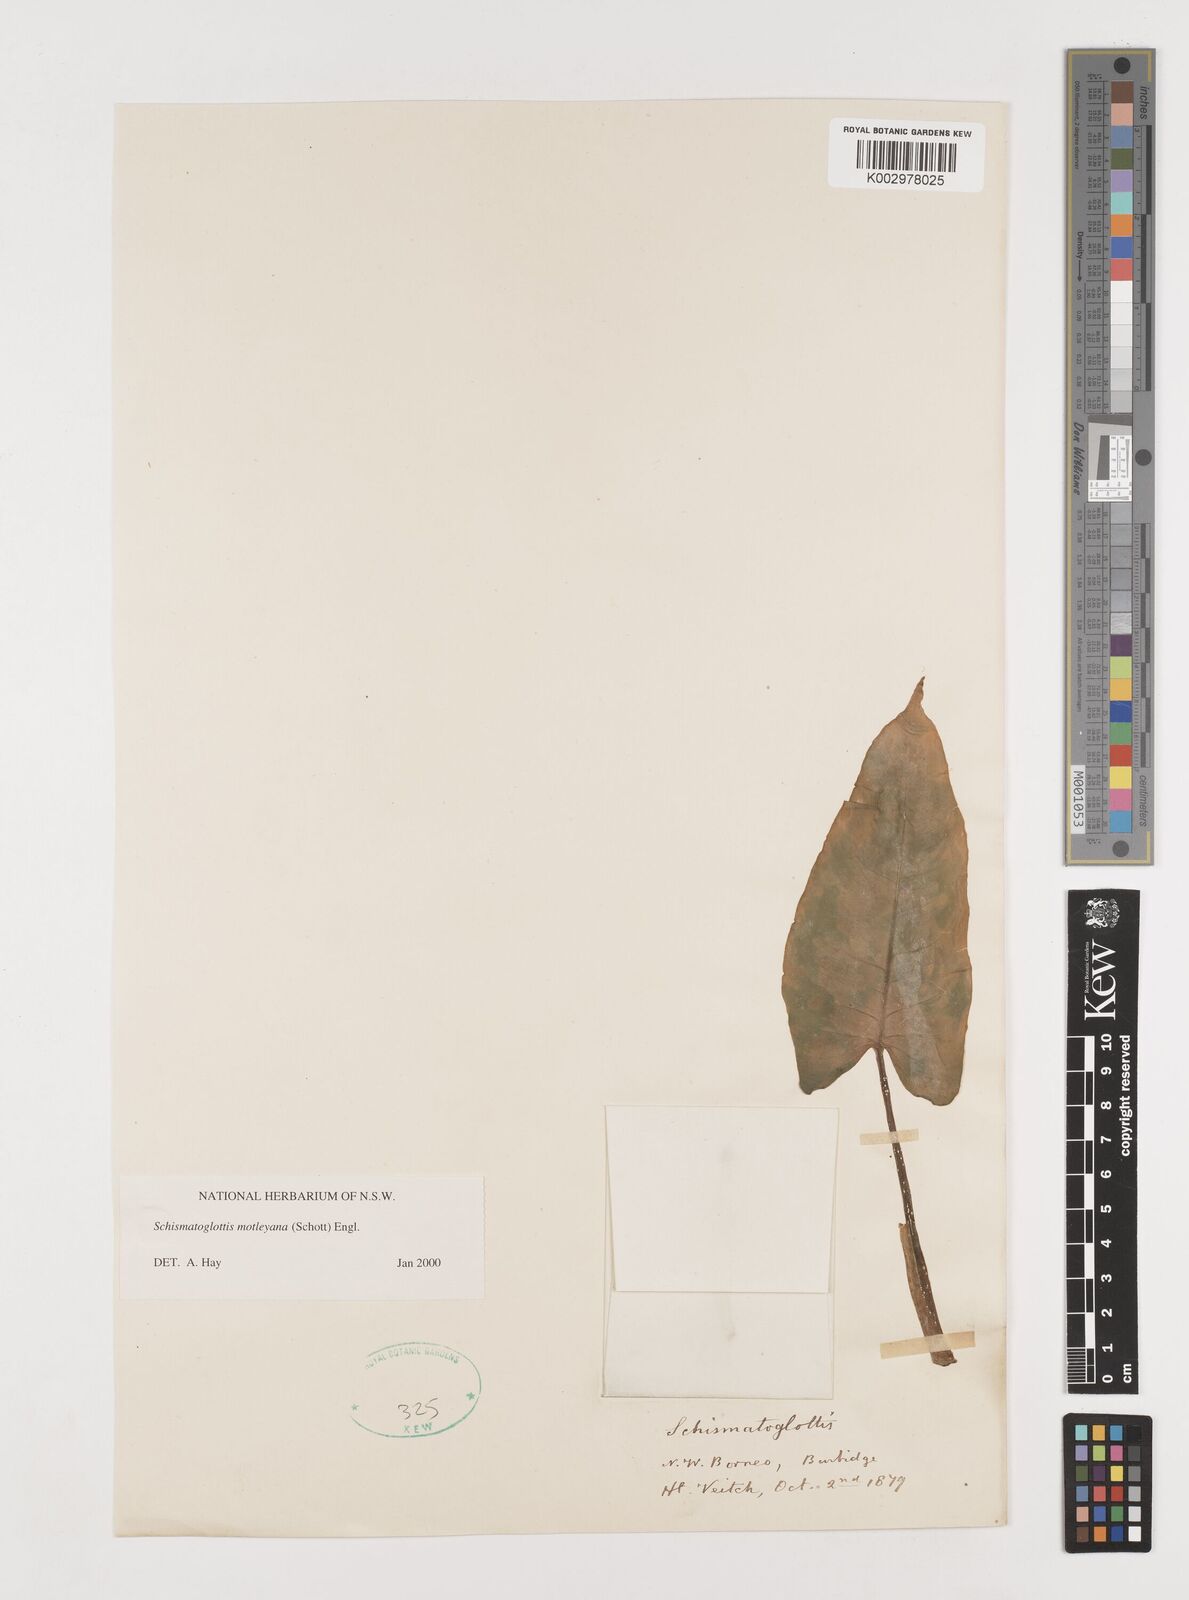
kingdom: Plantae
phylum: Tracheophyta
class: Liliopsida
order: Alismatales
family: Araceae
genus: Schismatoglottis
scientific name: Schismatoglottis motleyana
